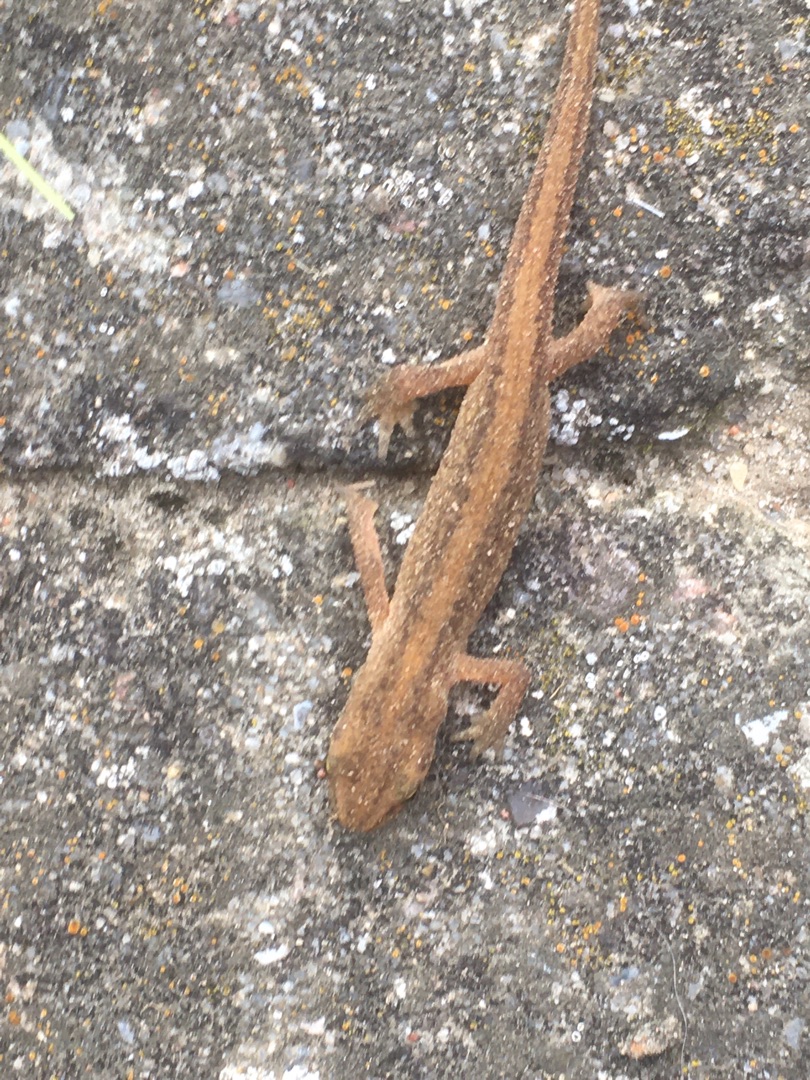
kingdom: Animalia
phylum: Chordata
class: Amphibia
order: Caudata
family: Salamandridae
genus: Lissotriton
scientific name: Lissotriton vulgaris
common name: Lille vandsalamander
